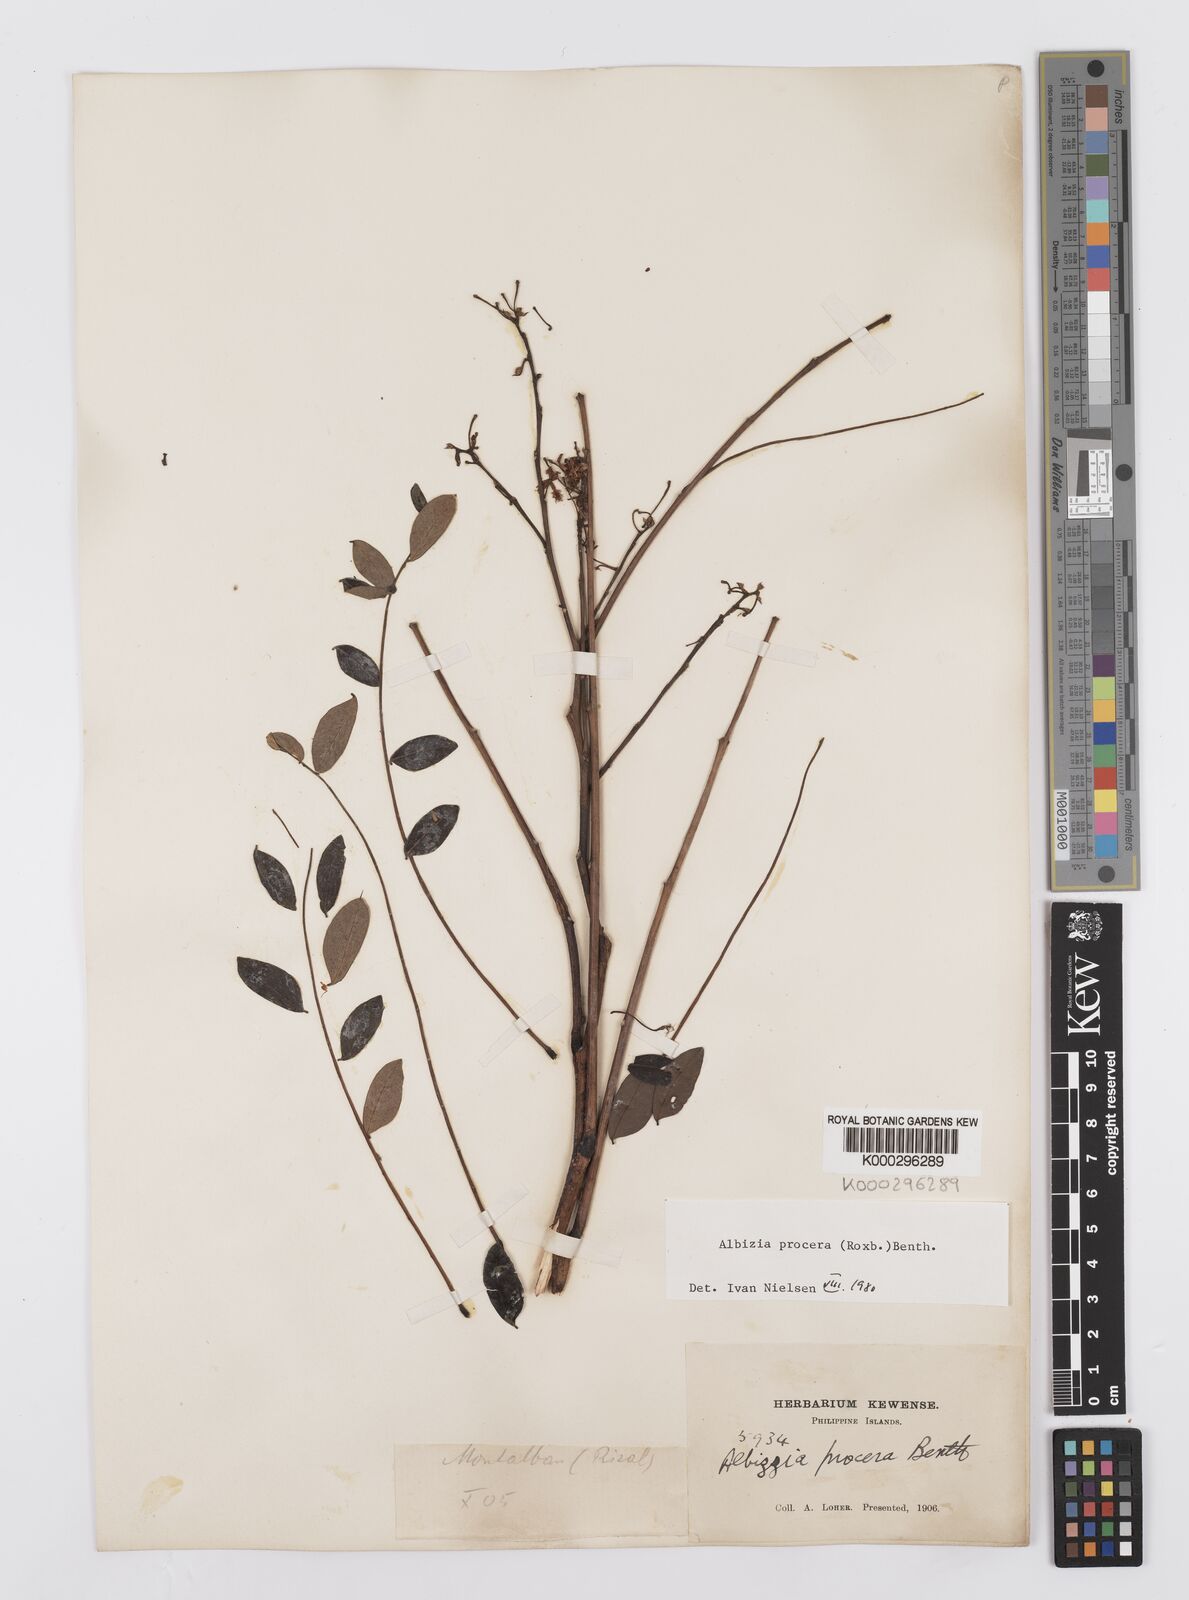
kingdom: Plantae
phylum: Tracheophyta
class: Magnoliopsida
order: Fabales
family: Fabaceae
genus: Albizia
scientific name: Albizia procera
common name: Tall albizia
